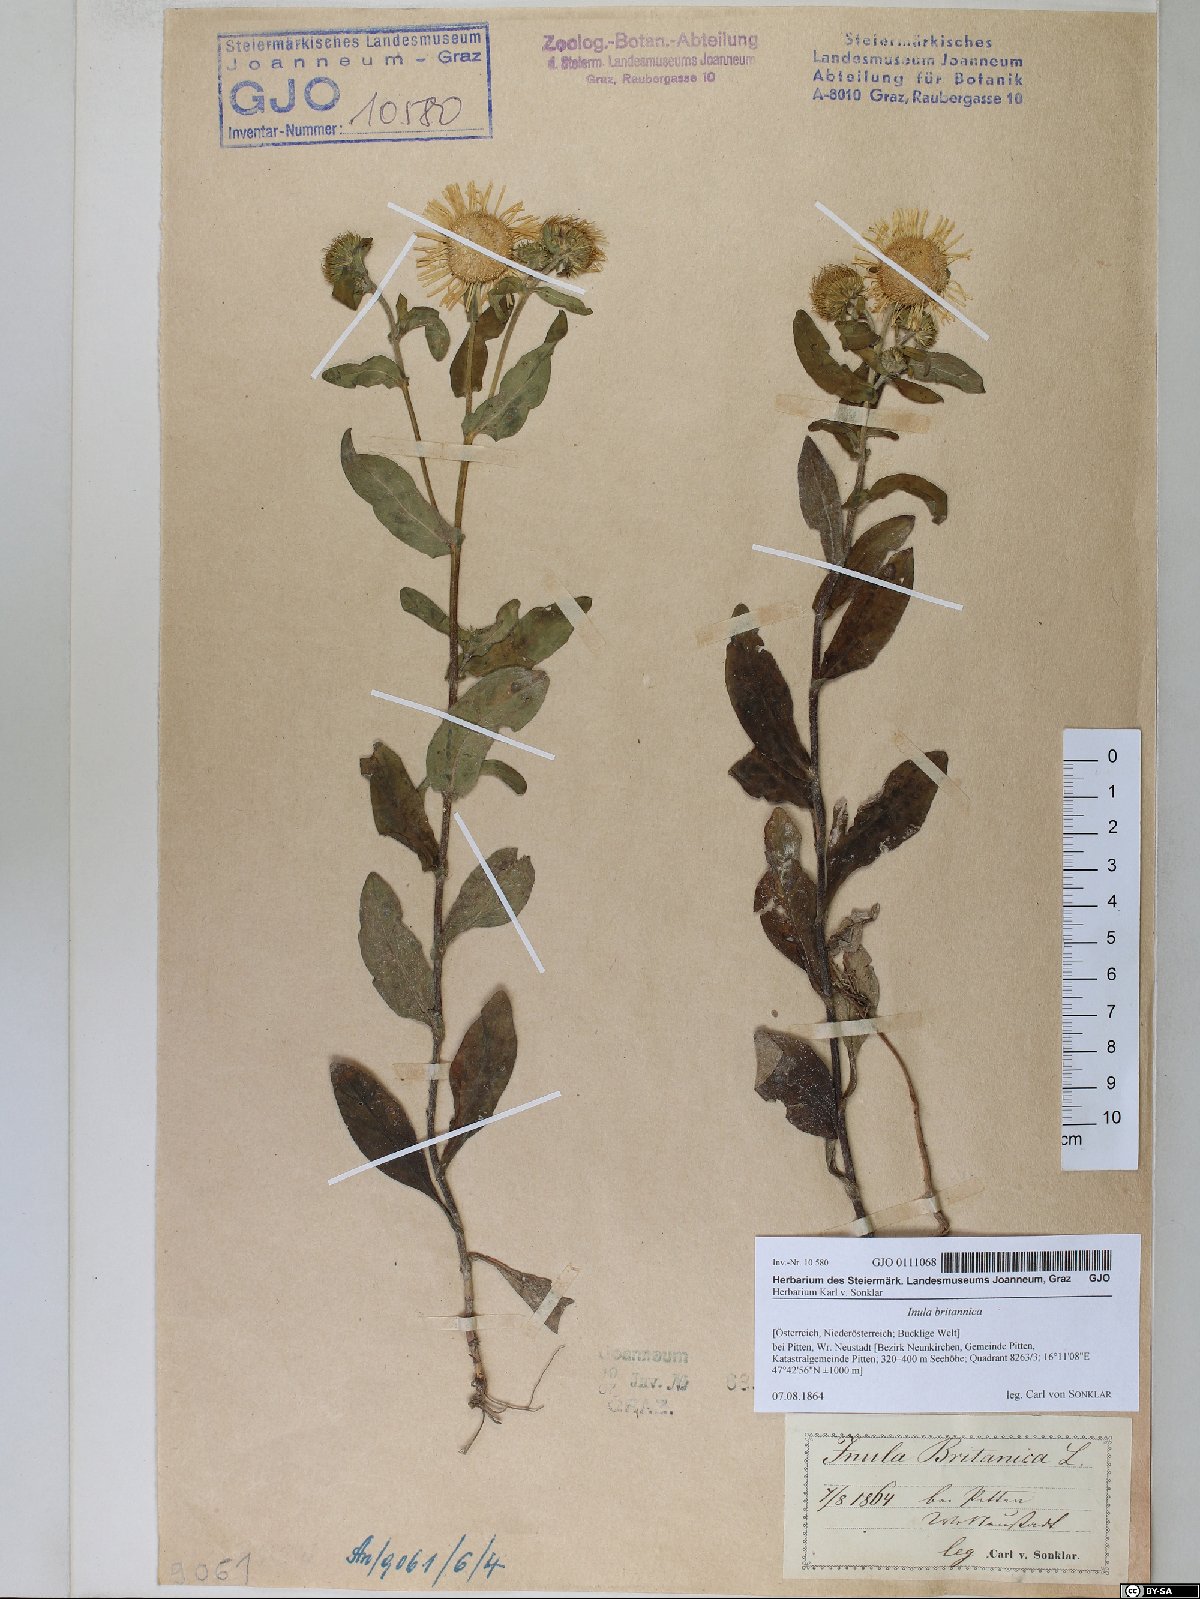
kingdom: Plantae
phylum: Tracheophyta
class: Magnoliopsida
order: Asterales
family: Asteraceae
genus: Pentanema
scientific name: Pentanema britannicum
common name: British elecampane
